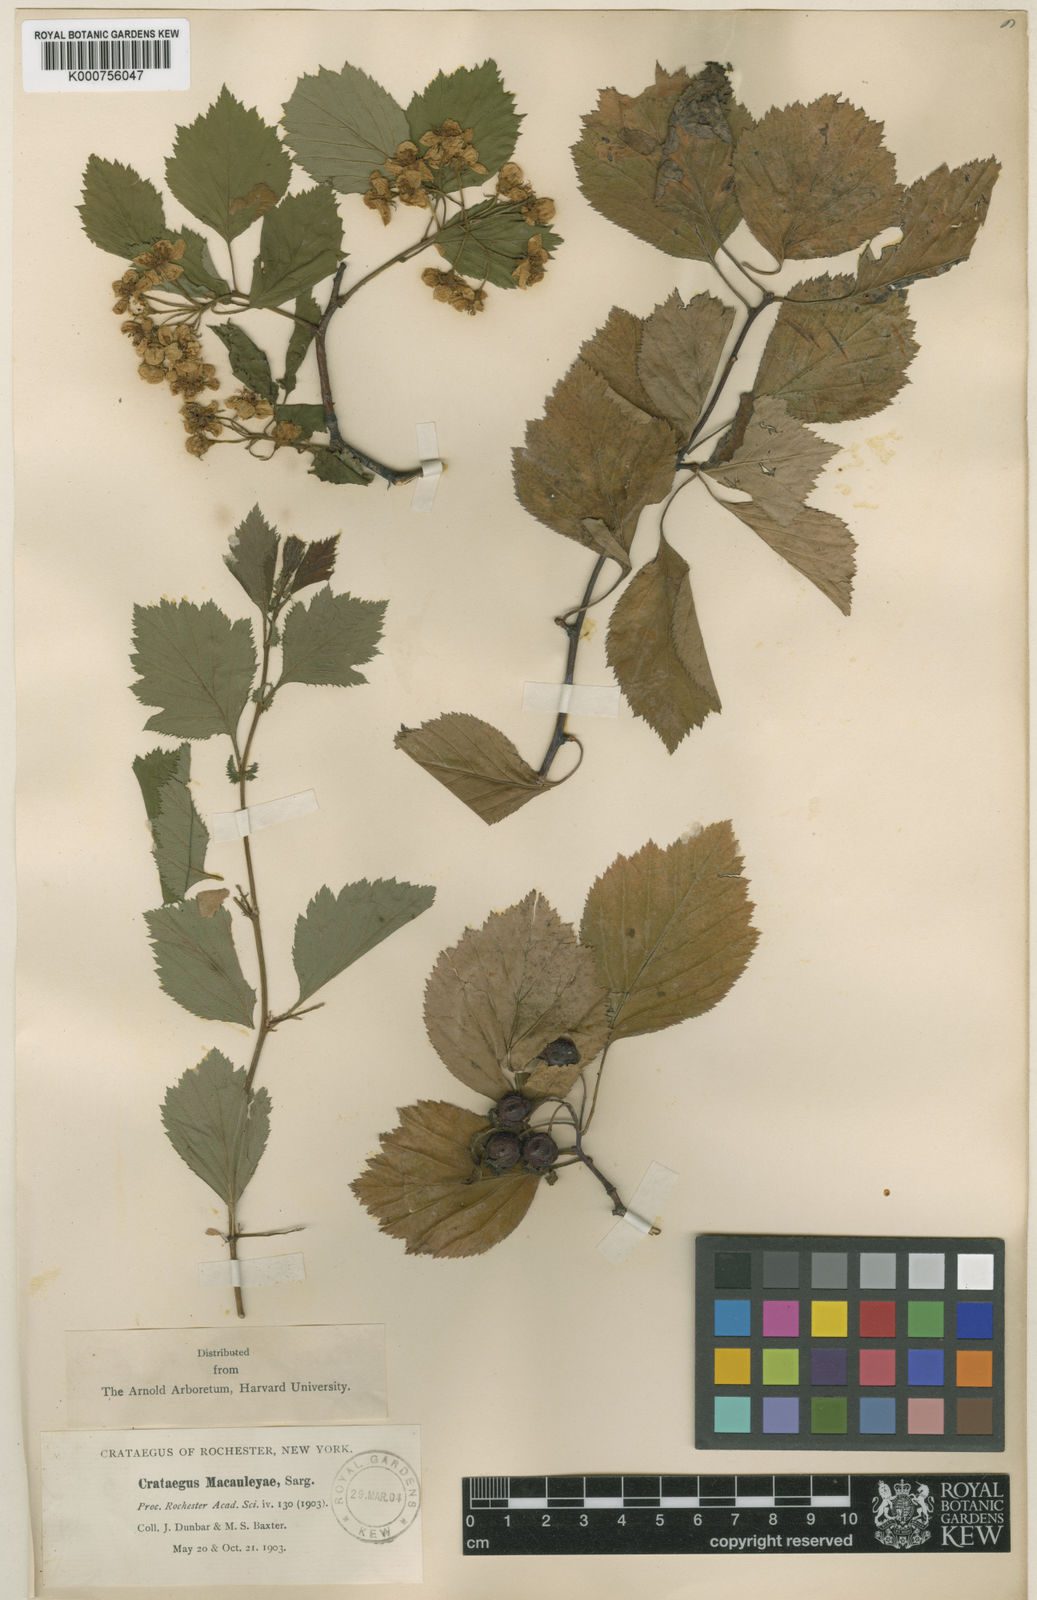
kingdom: Plantae
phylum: Tracheophyta
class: Magnoliopsida
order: Rosales
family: Rosaceae
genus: Crataegus
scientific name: Crataegus coleae
